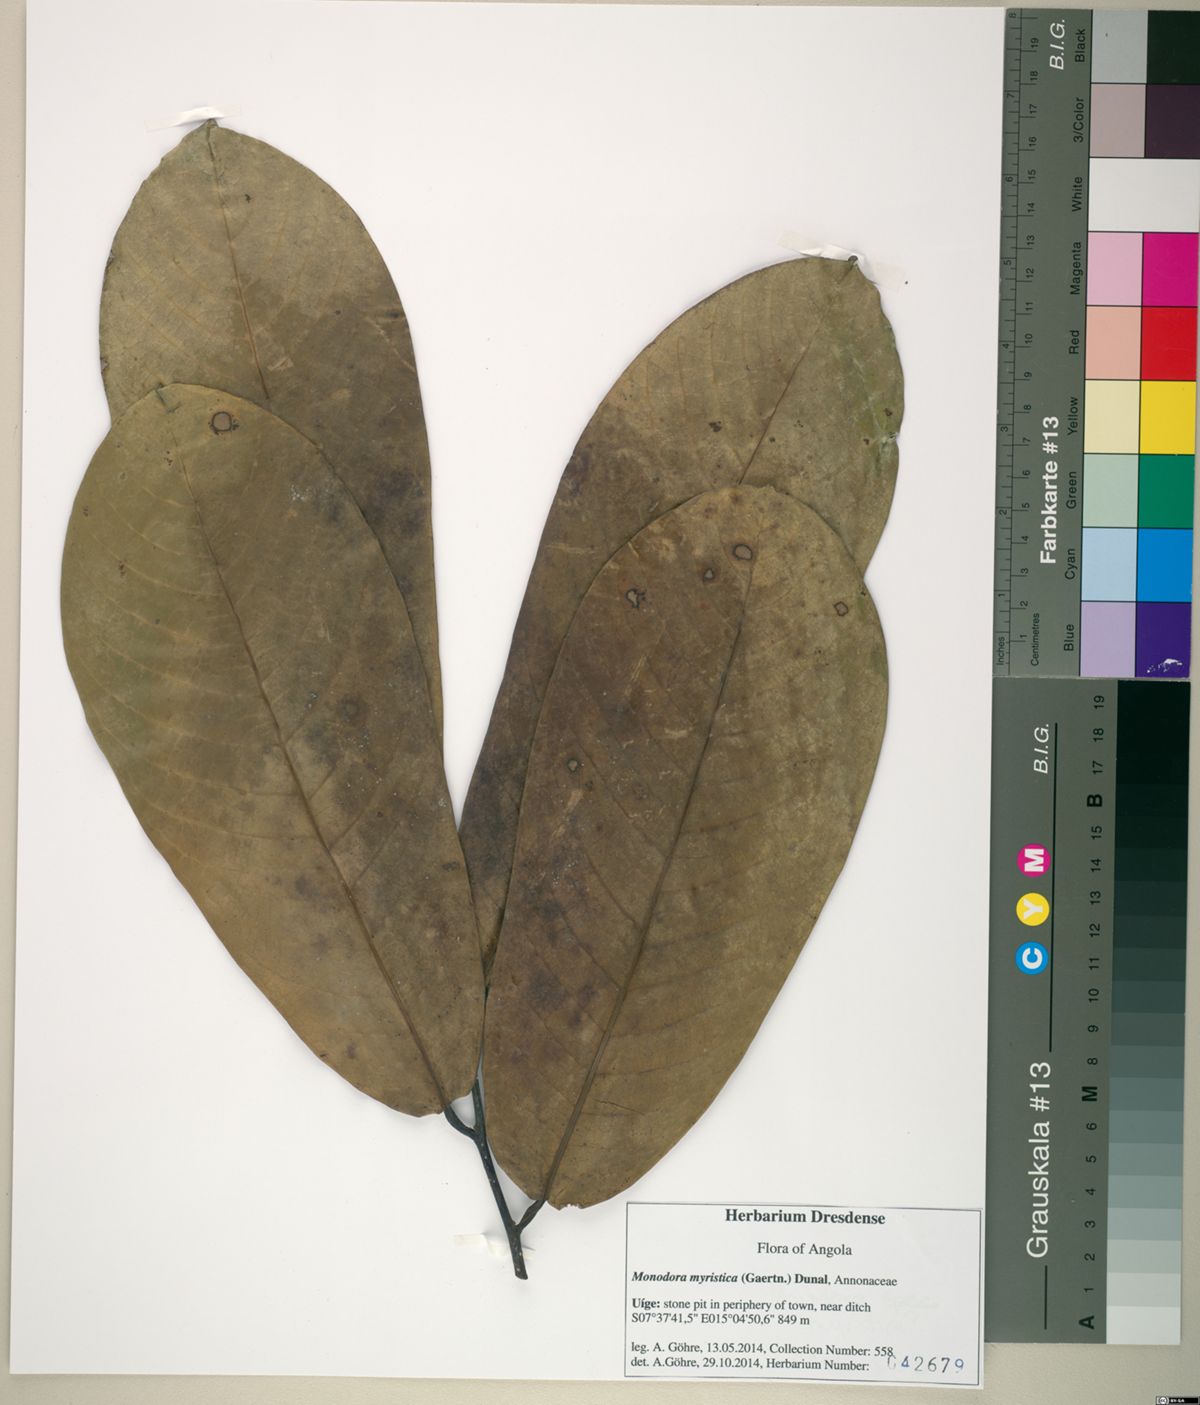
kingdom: Plantae
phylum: Tracheophyta
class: Magnoliopsida
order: Magnoliales
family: Annonaceae
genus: Monodora
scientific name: Monodora myristica
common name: African nutmeg
